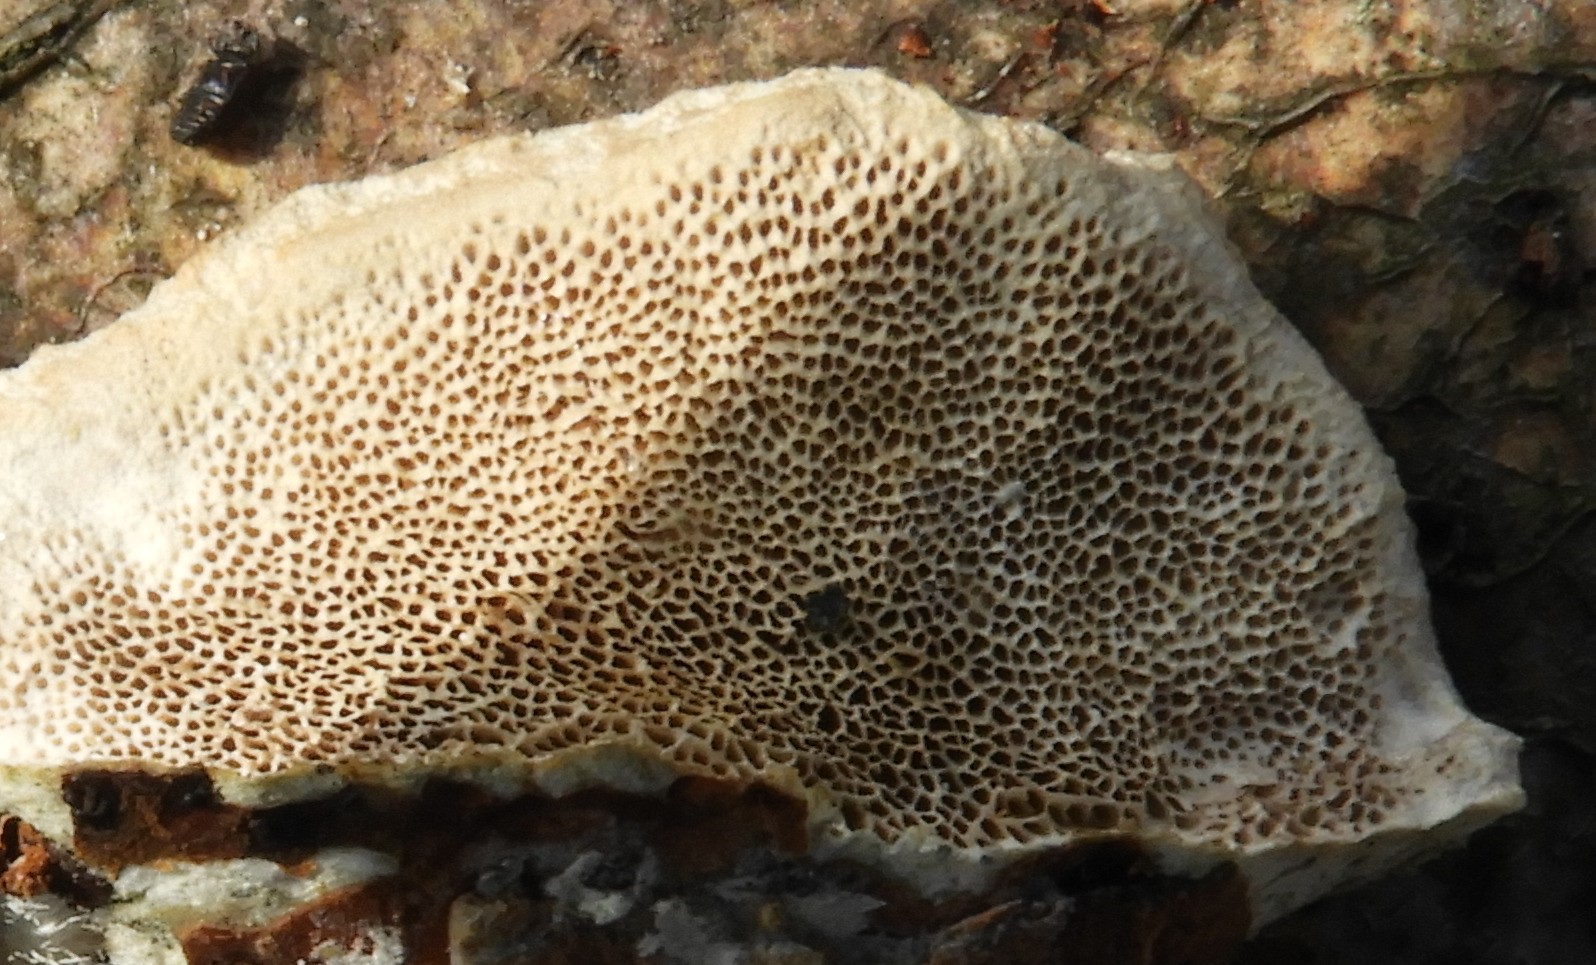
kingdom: Fungi
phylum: Basidiomycota
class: Agaricomycetes
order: Polyporales
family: Polyporaceae
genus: Trametes
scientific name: Trametes hirsuta
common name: håret læderporesvamp
